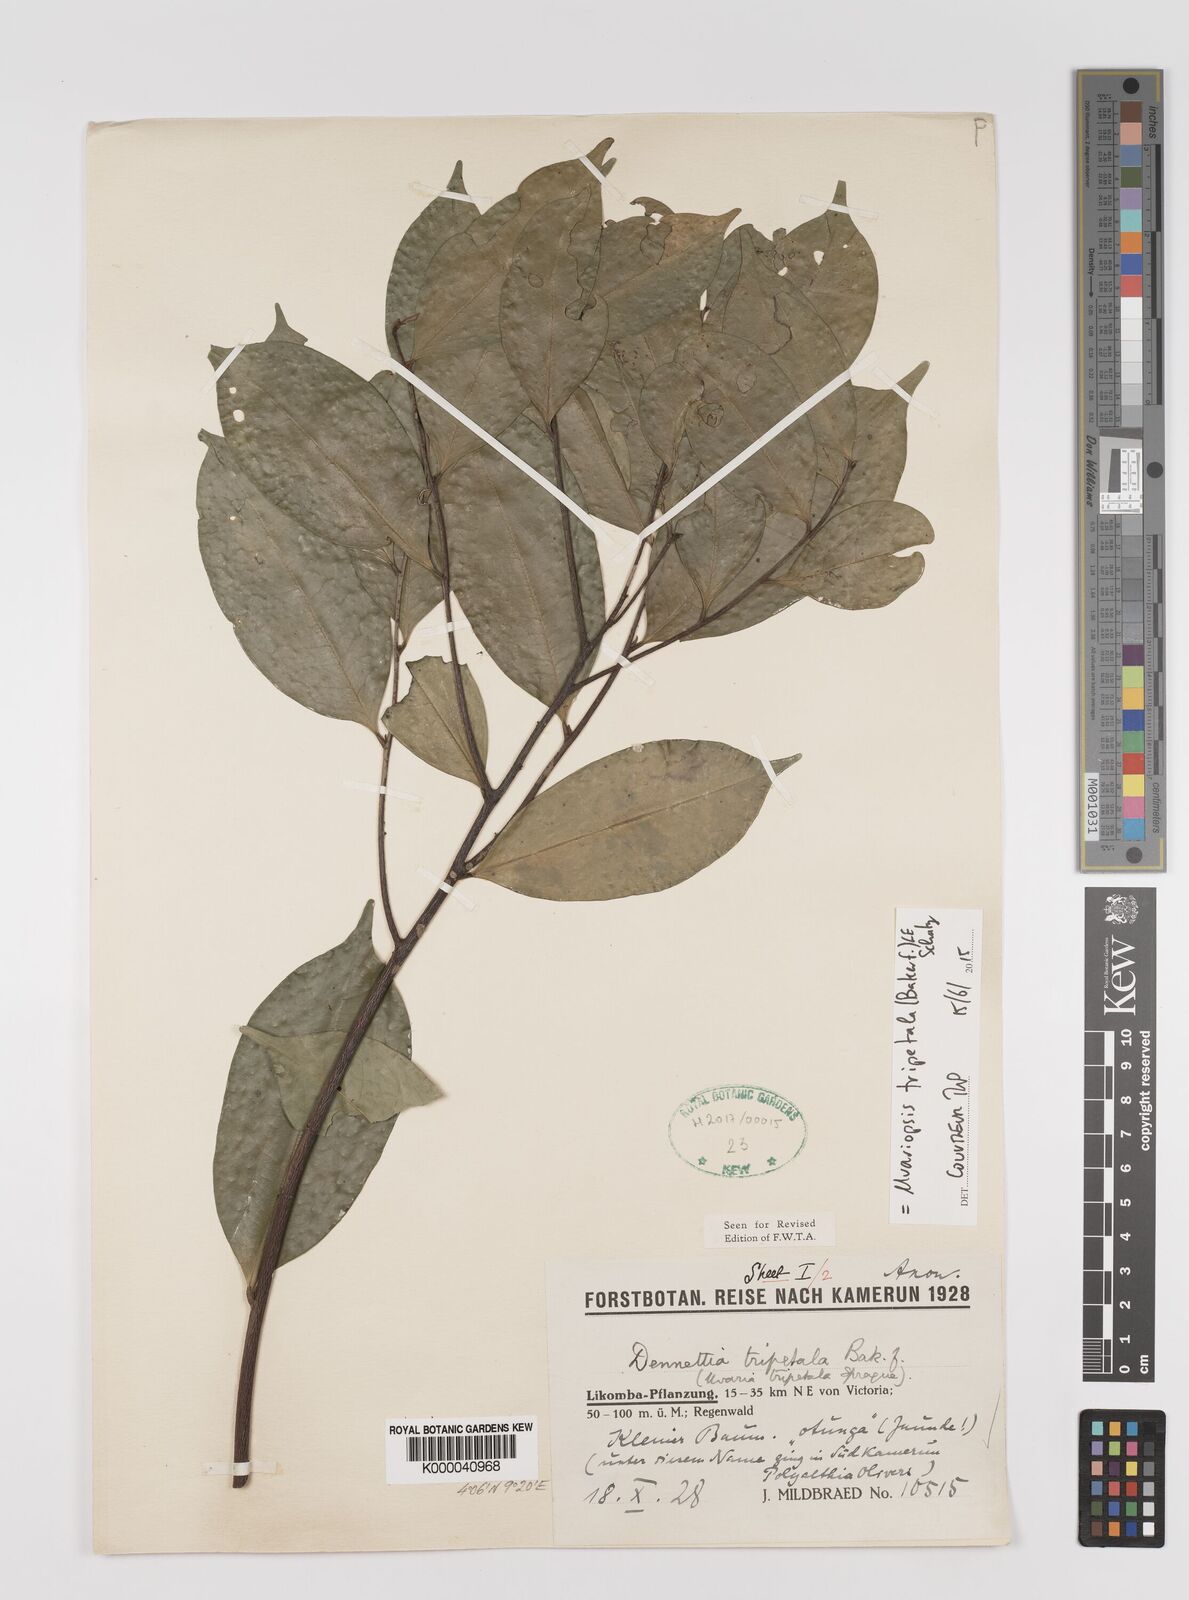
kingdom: Plantae
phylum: Tracheophyta
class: Magnoliopsida
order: Magnoliales
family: Annonaceae
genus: Uvariopsis
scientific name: Uvariopsis tripetala
